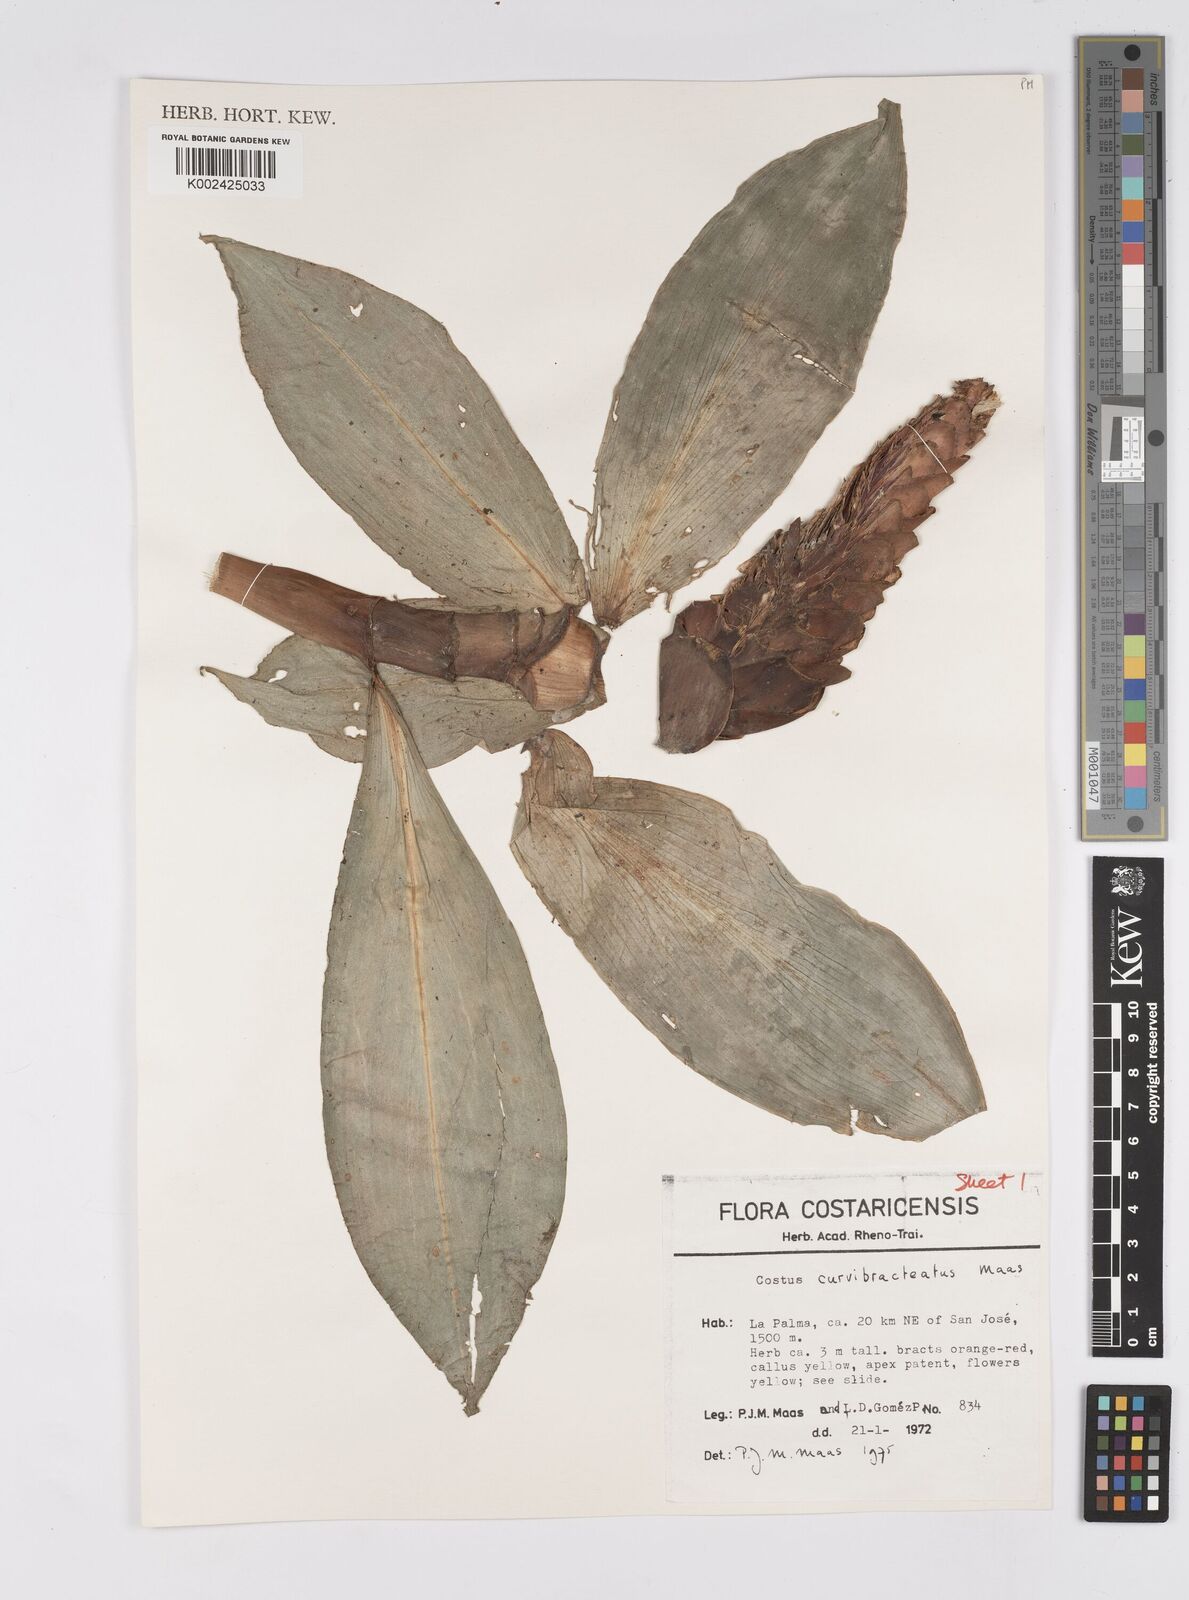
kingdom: Plantae
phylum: Tracheophyta
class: Liliopsida
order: Zingiberales
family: Costaceae
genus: Costus
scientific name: Costus curvibracteatus
